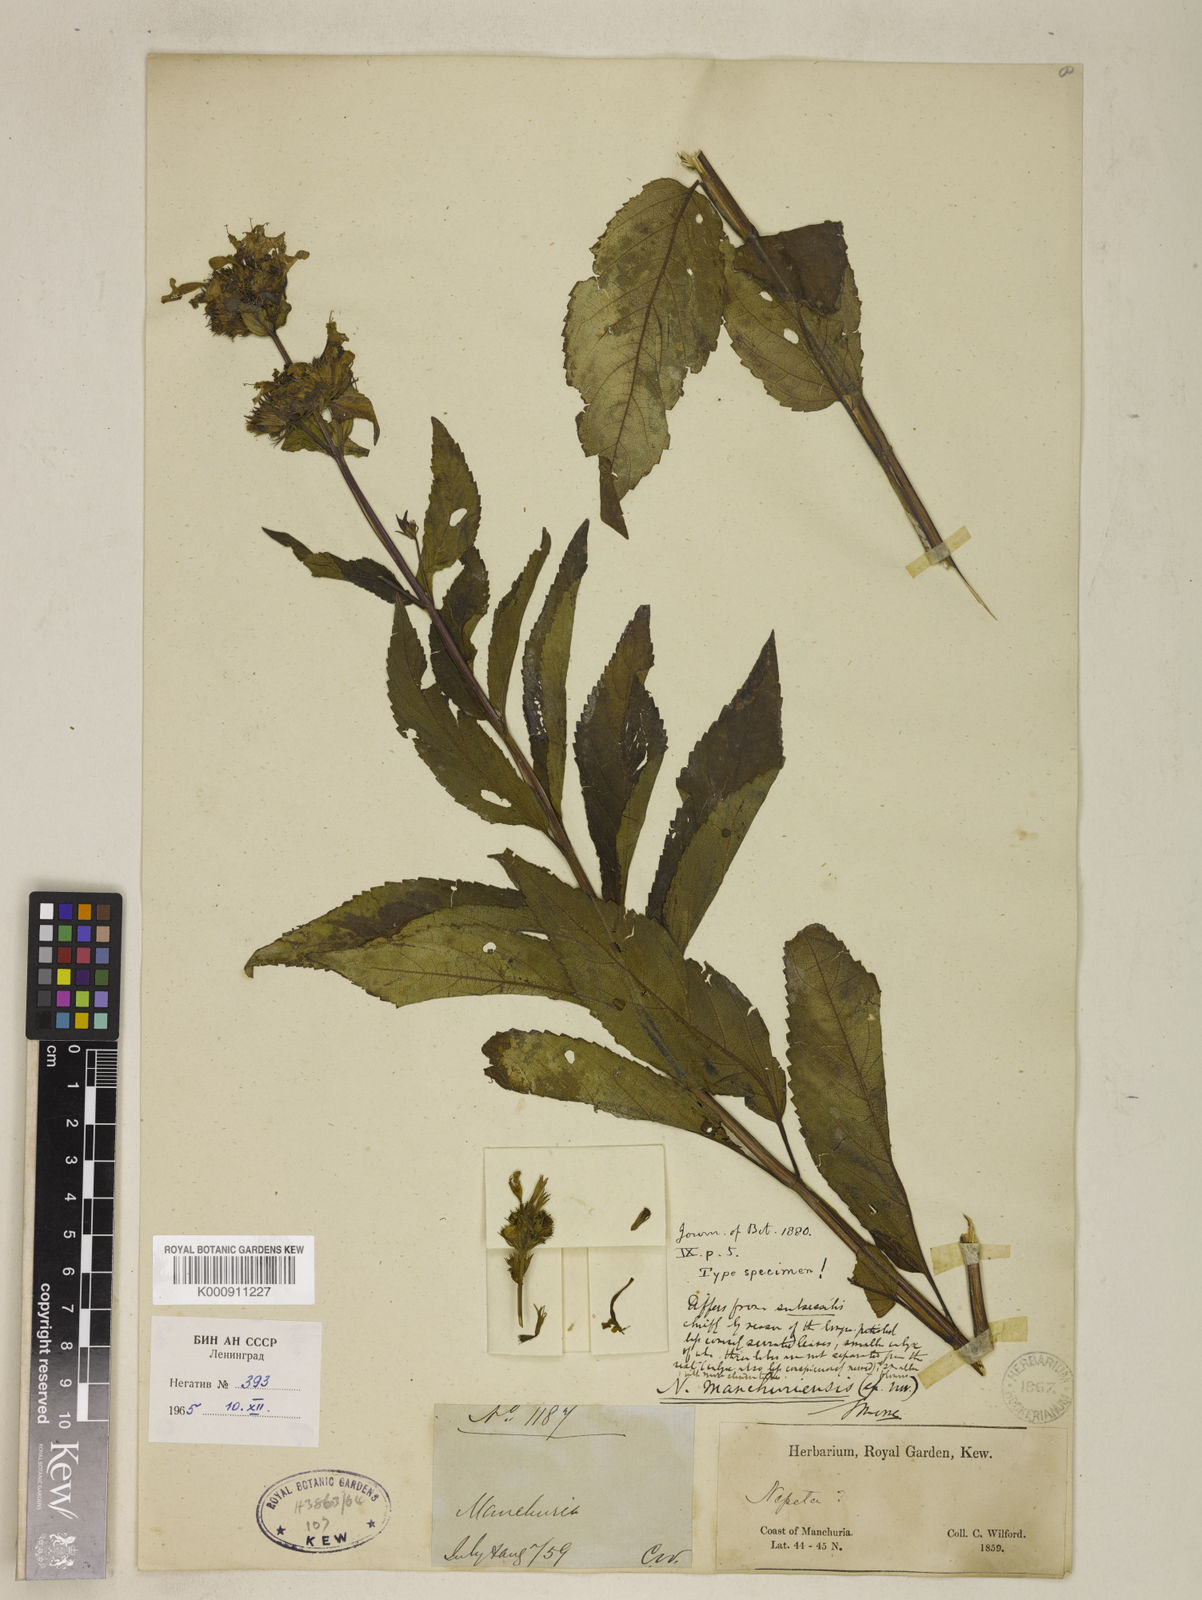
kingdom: Plantae
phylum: Tracheophyta
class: Magnoliopsida
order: Lamiales
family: Lamiaceae
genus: Nepeta
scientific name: Nepeta manchuriensis
